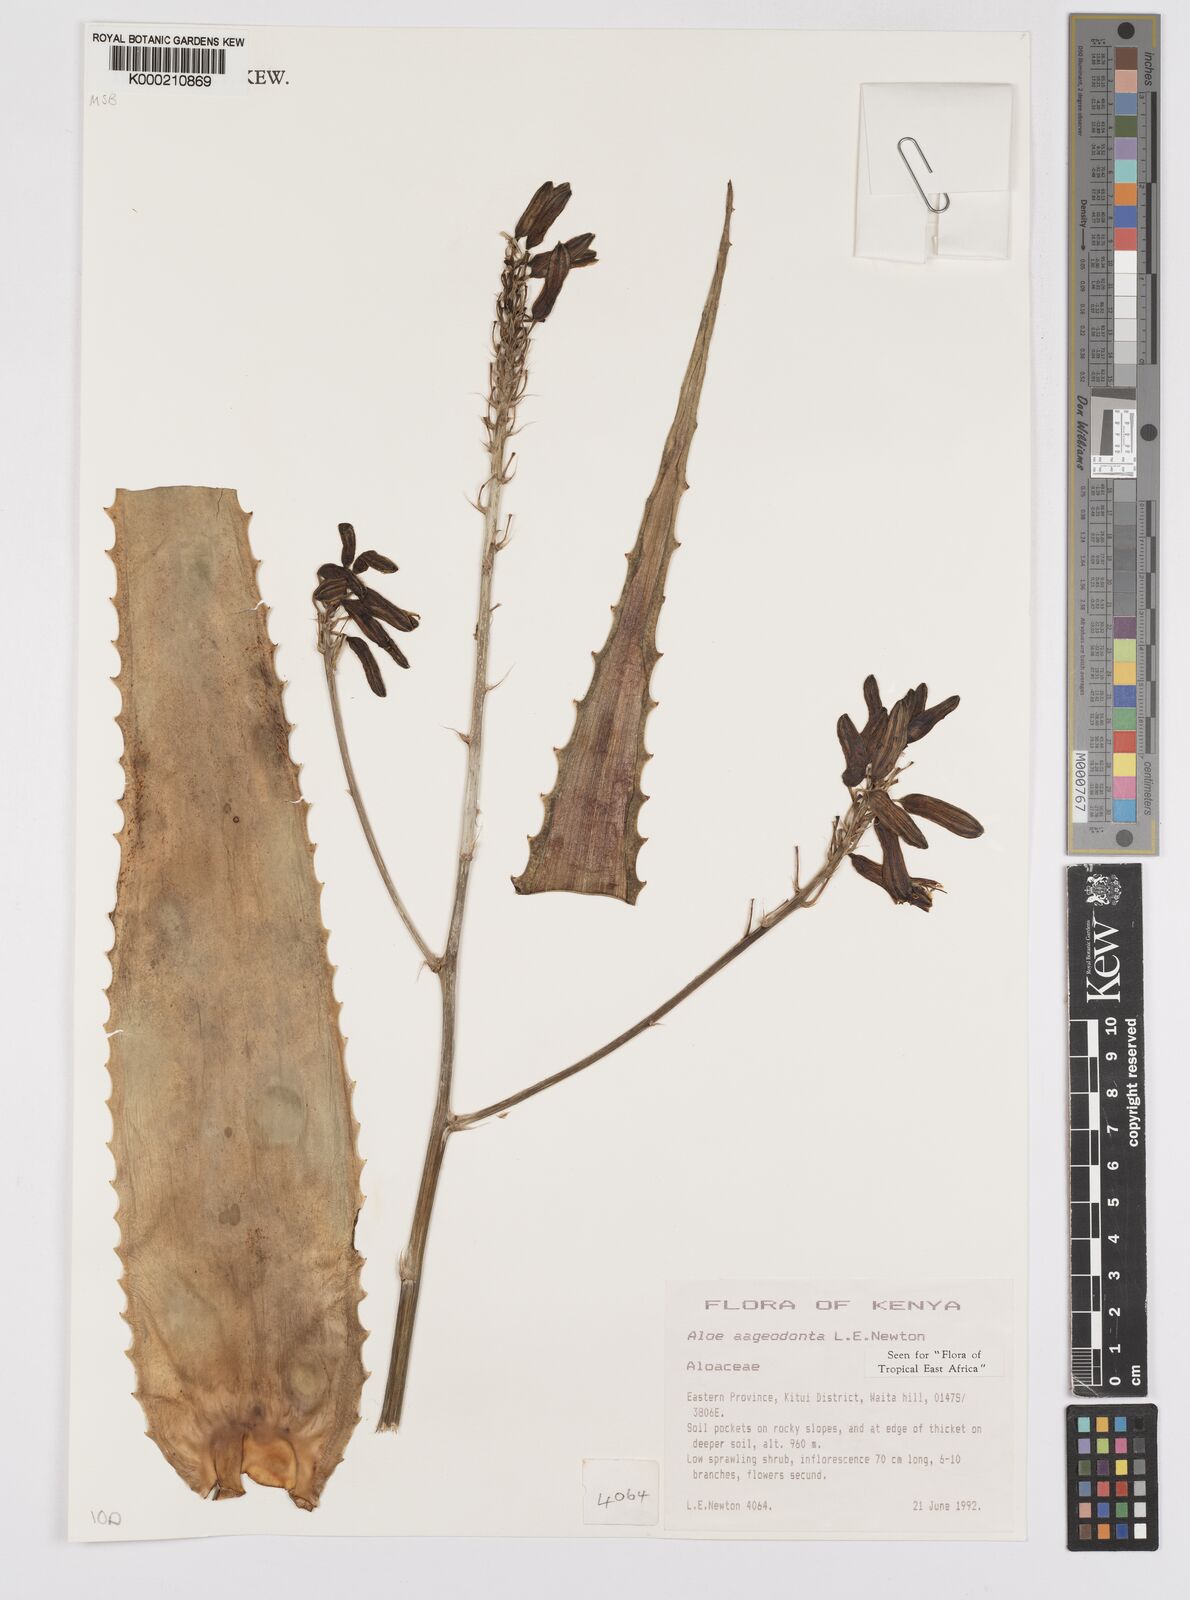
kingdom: Plantae
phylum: Tracheophyta
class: Liliopsida
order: Asparagales
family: Asphodelaceae
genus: Aloe
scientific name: Aloe aageodonta
